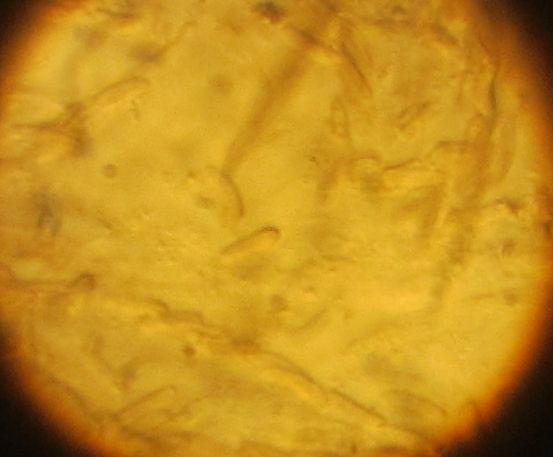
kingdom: Fungi
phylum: Ascomycota
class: Sordariomycetes
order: Xylariales
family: Diatrypaceae
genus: Diatrype
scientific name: Diatrype
